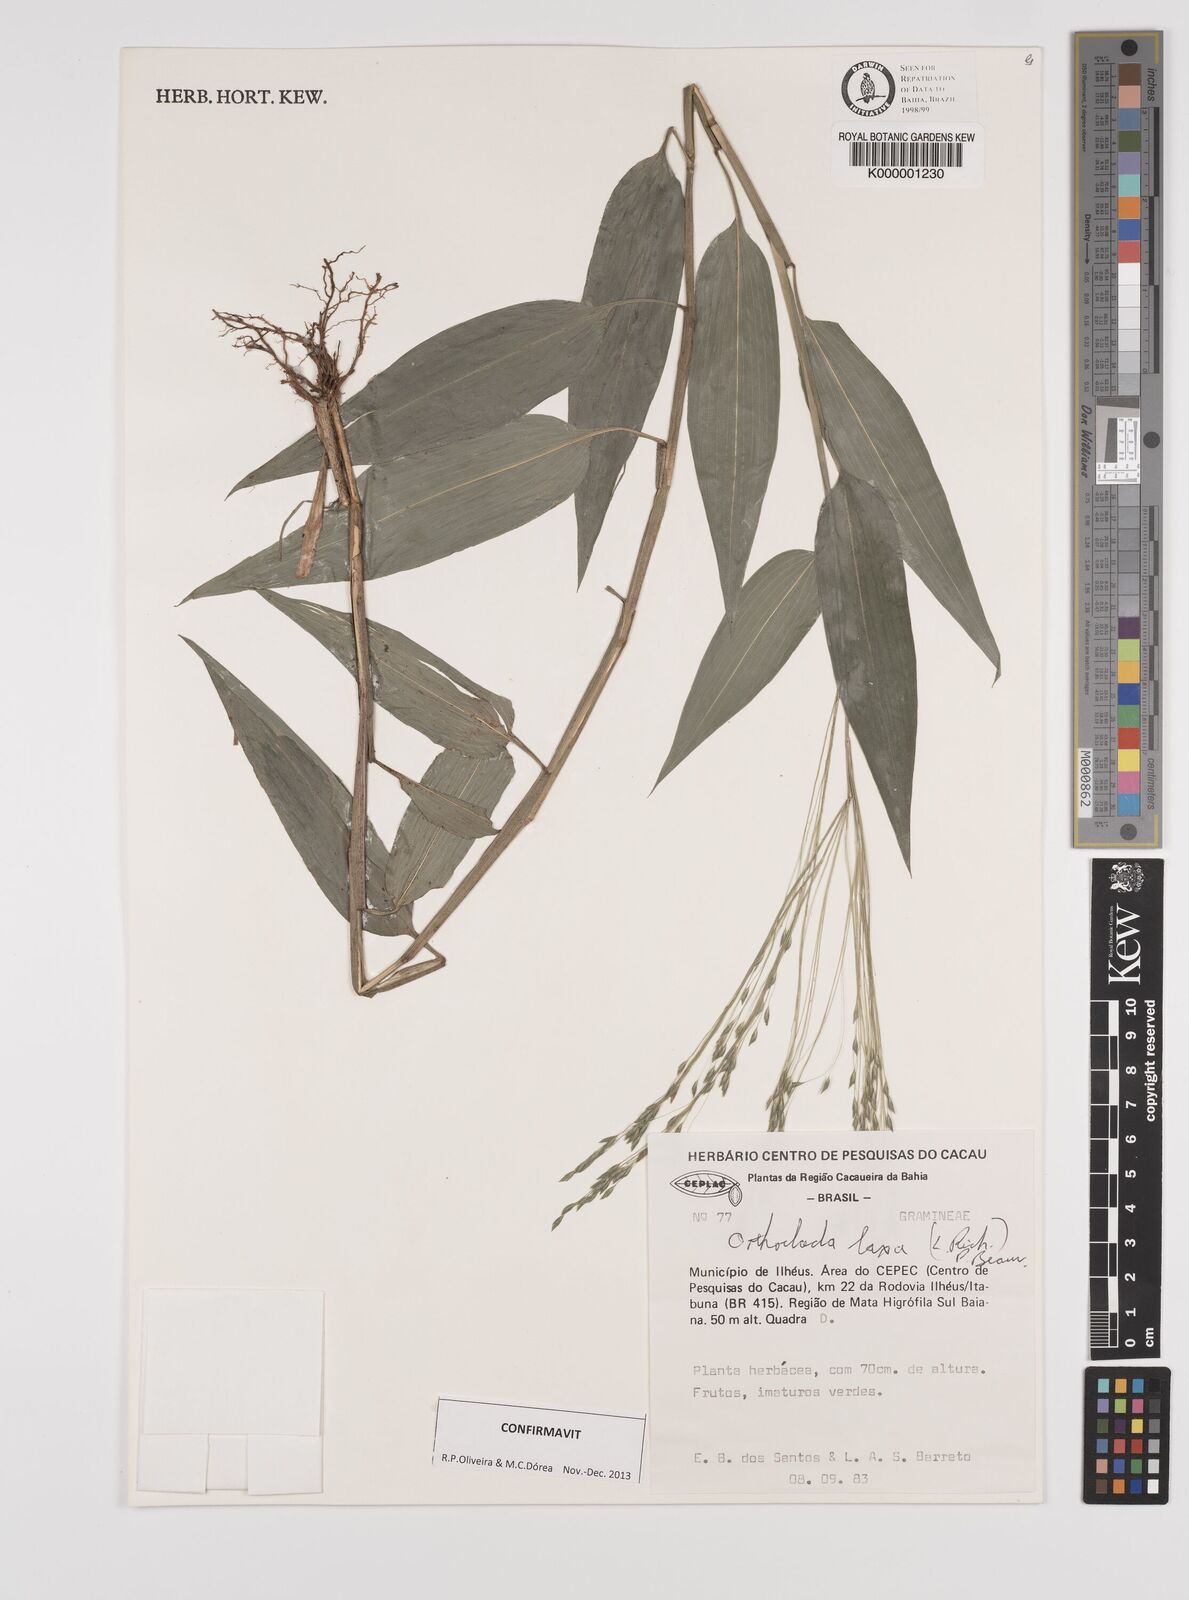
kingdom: Plantae
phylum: Tracheophyta
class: Liliopsida
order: Poales
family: Poaceae
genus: Orthoclada
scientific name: Orthoclada laxa
